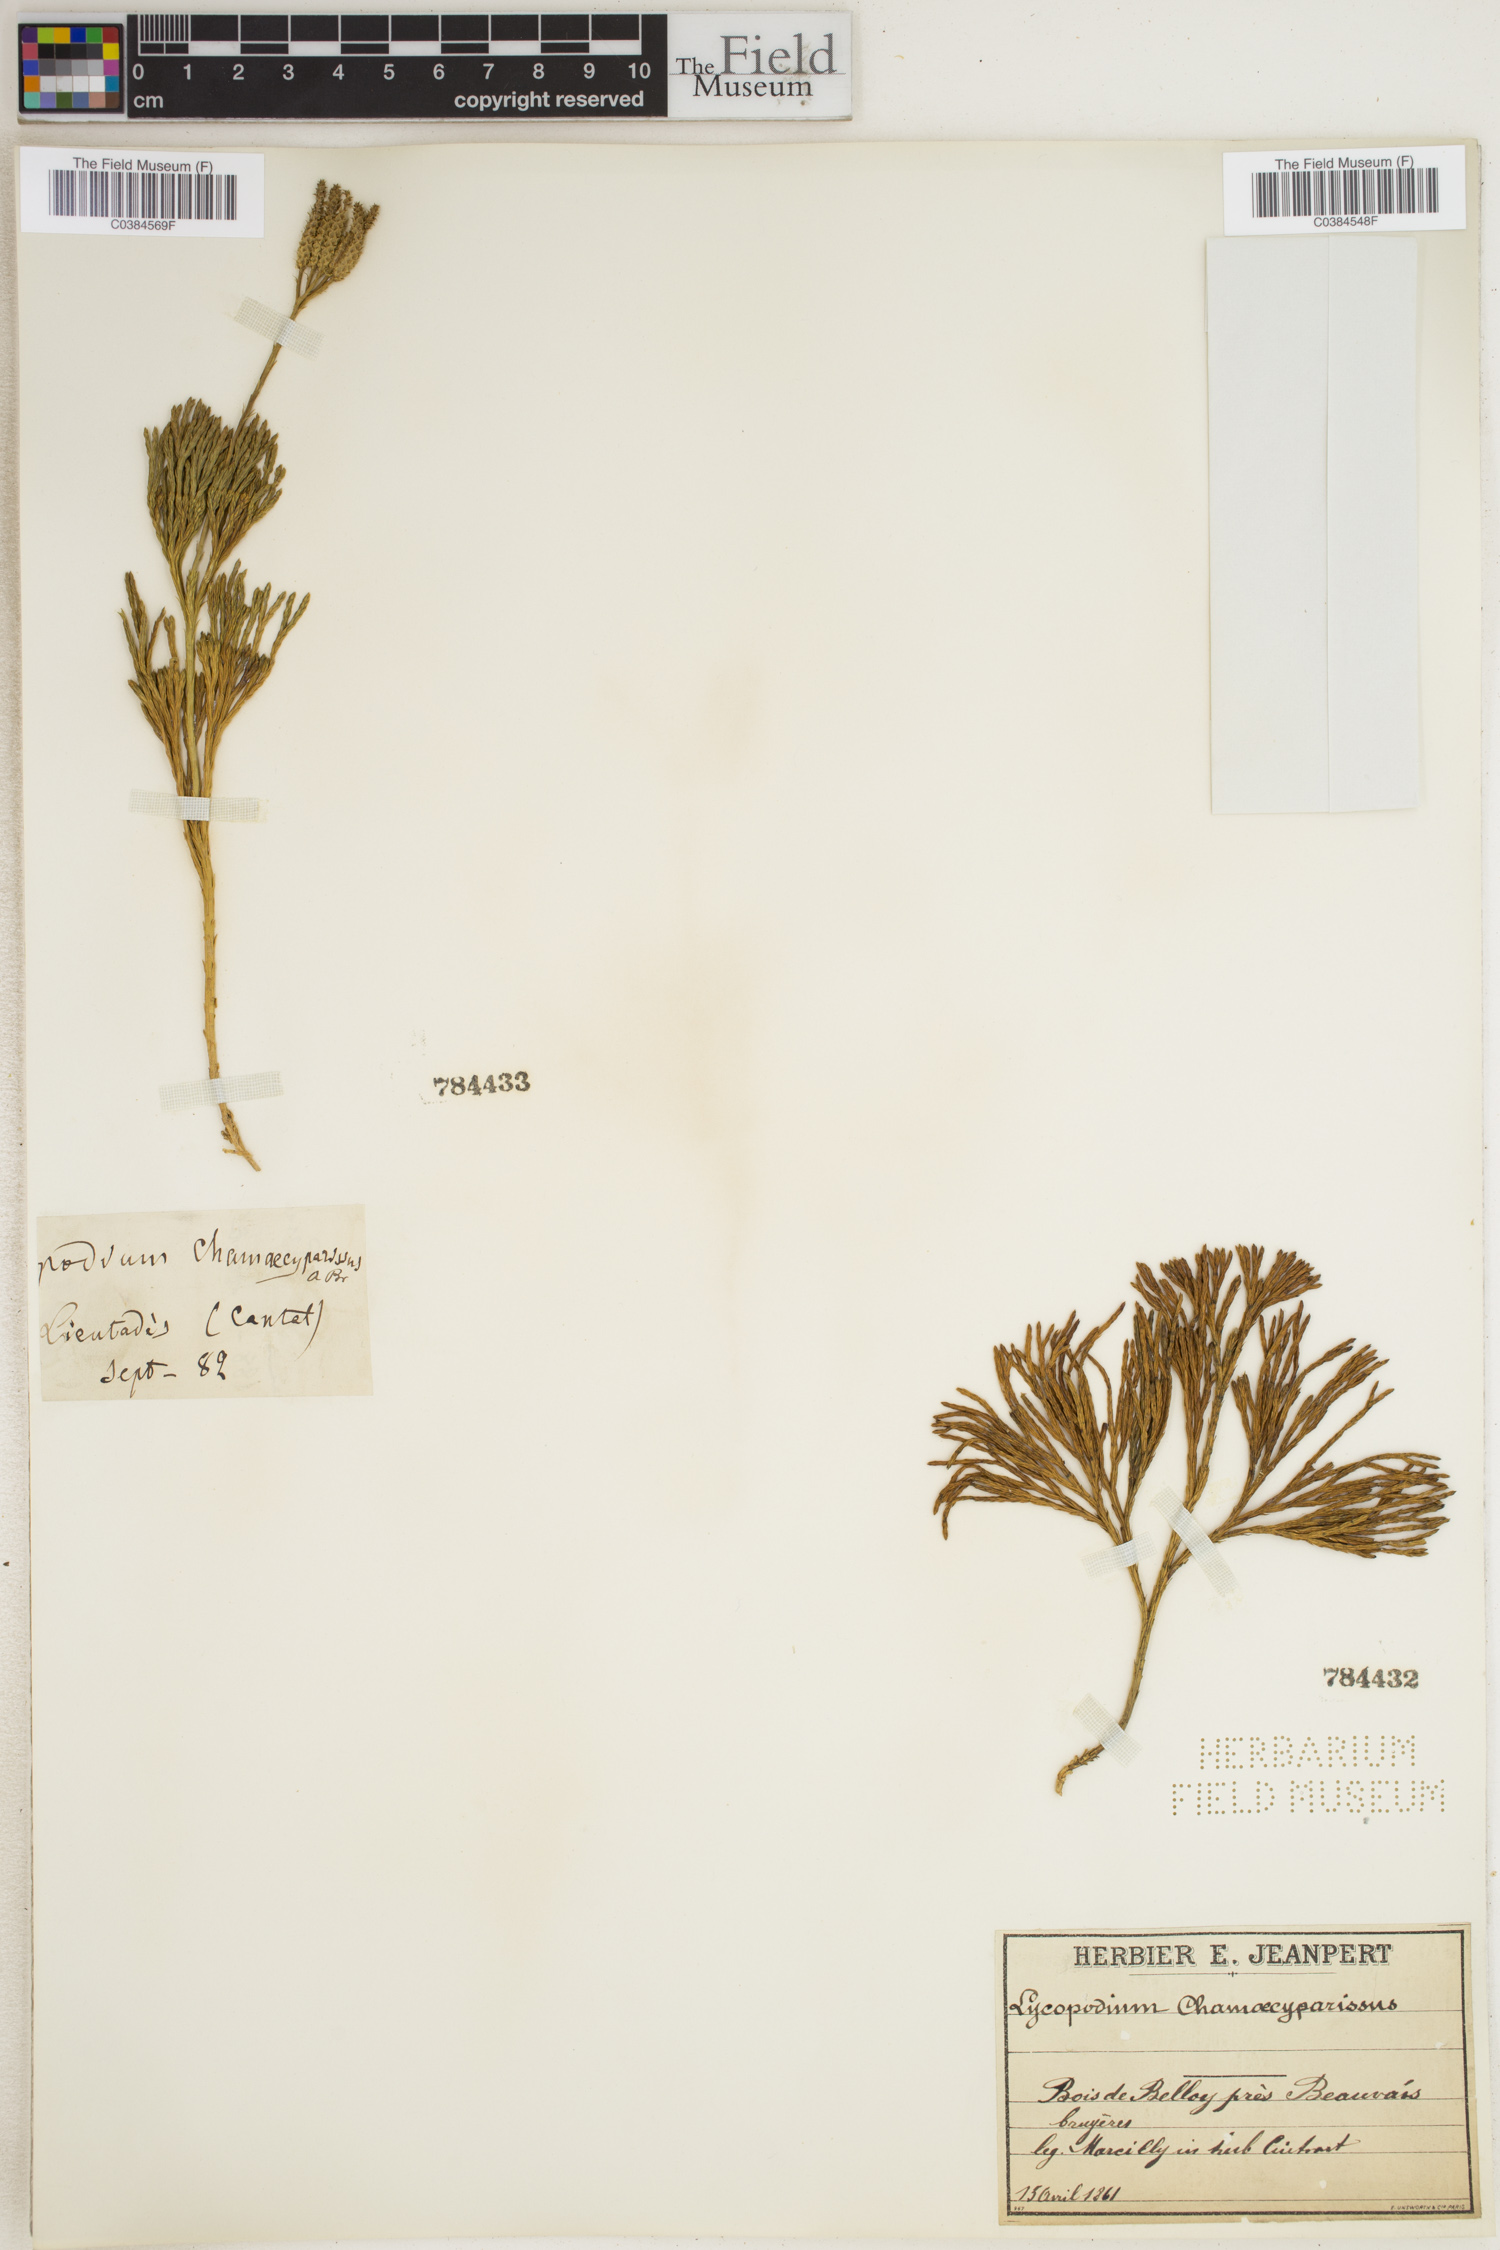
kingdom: Plantae
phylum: Tracheophyta
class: Lycopodiopsida
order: Lycopodiales
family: Lycopodiaceae
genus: Diphasiastrum
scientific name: Diphasiastrum tristachyum
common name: Blue ground-cedar
